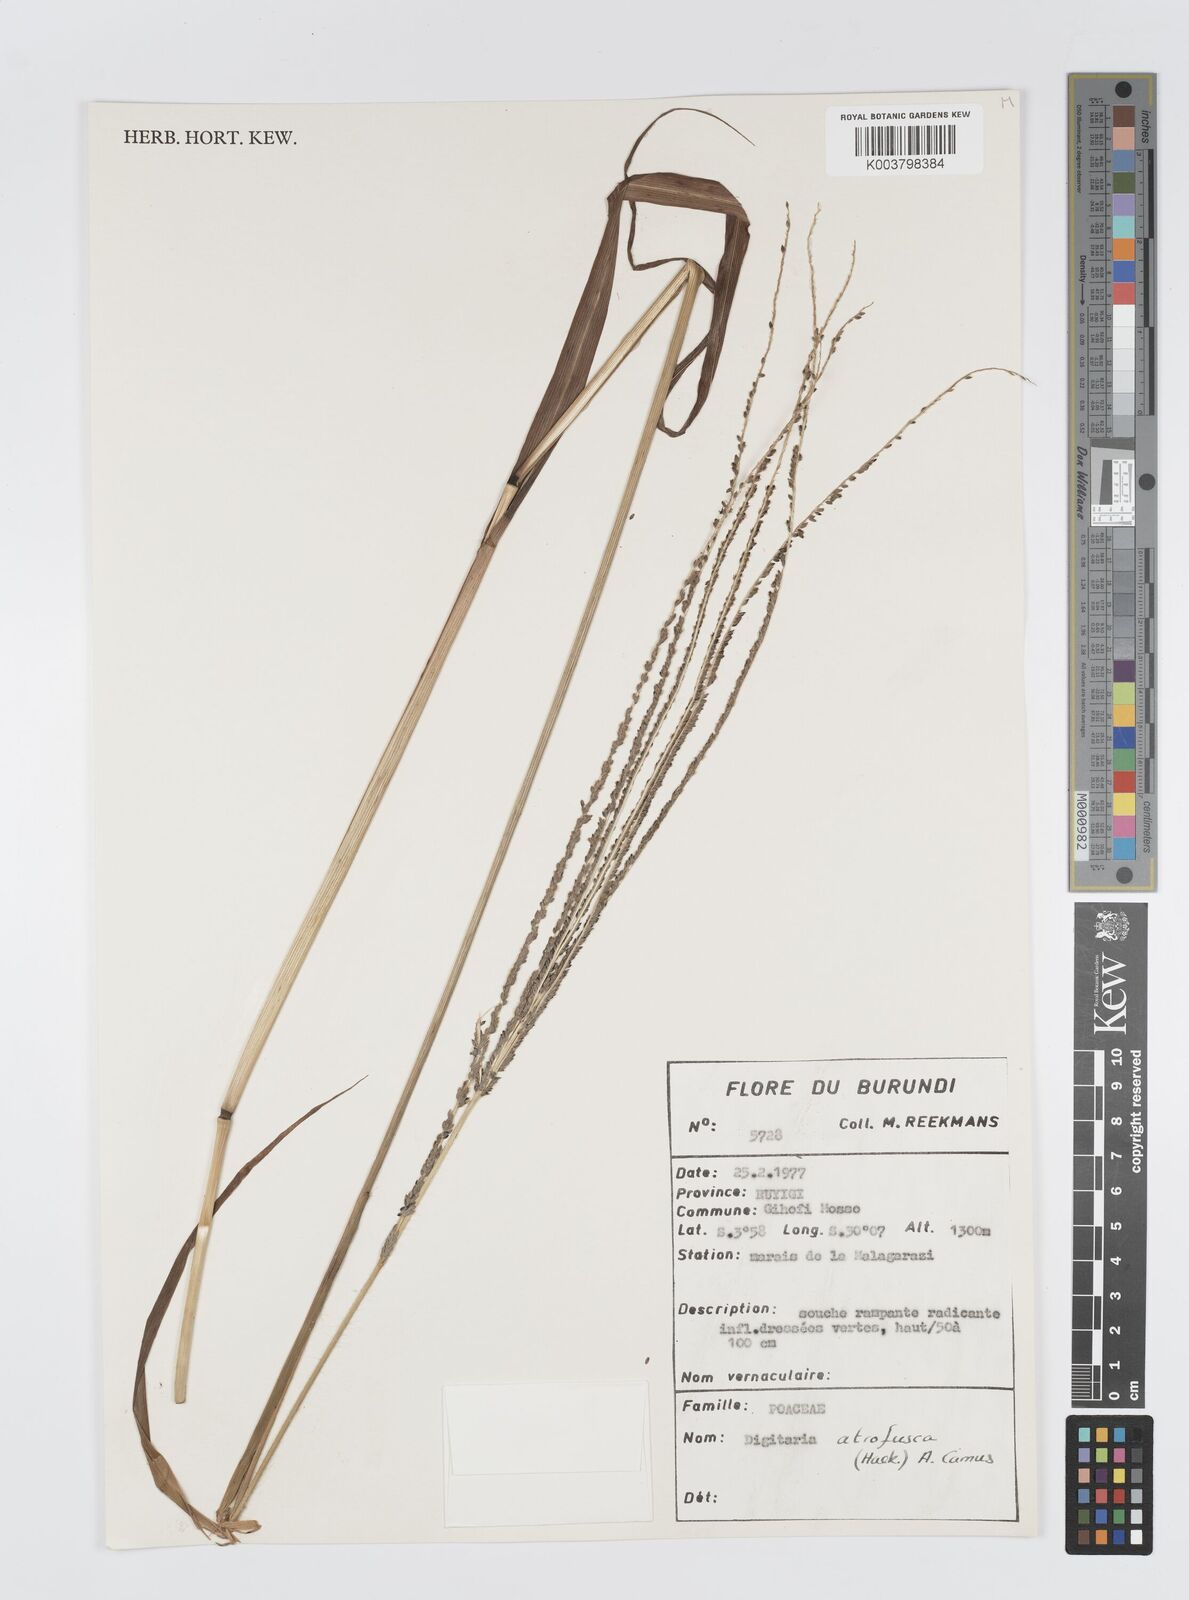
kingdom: Plantae
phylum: Tracheophyta
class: Liliopsida
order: Poales
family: Poaceae
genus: Digitaria
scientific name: Digitaria atrofusca
